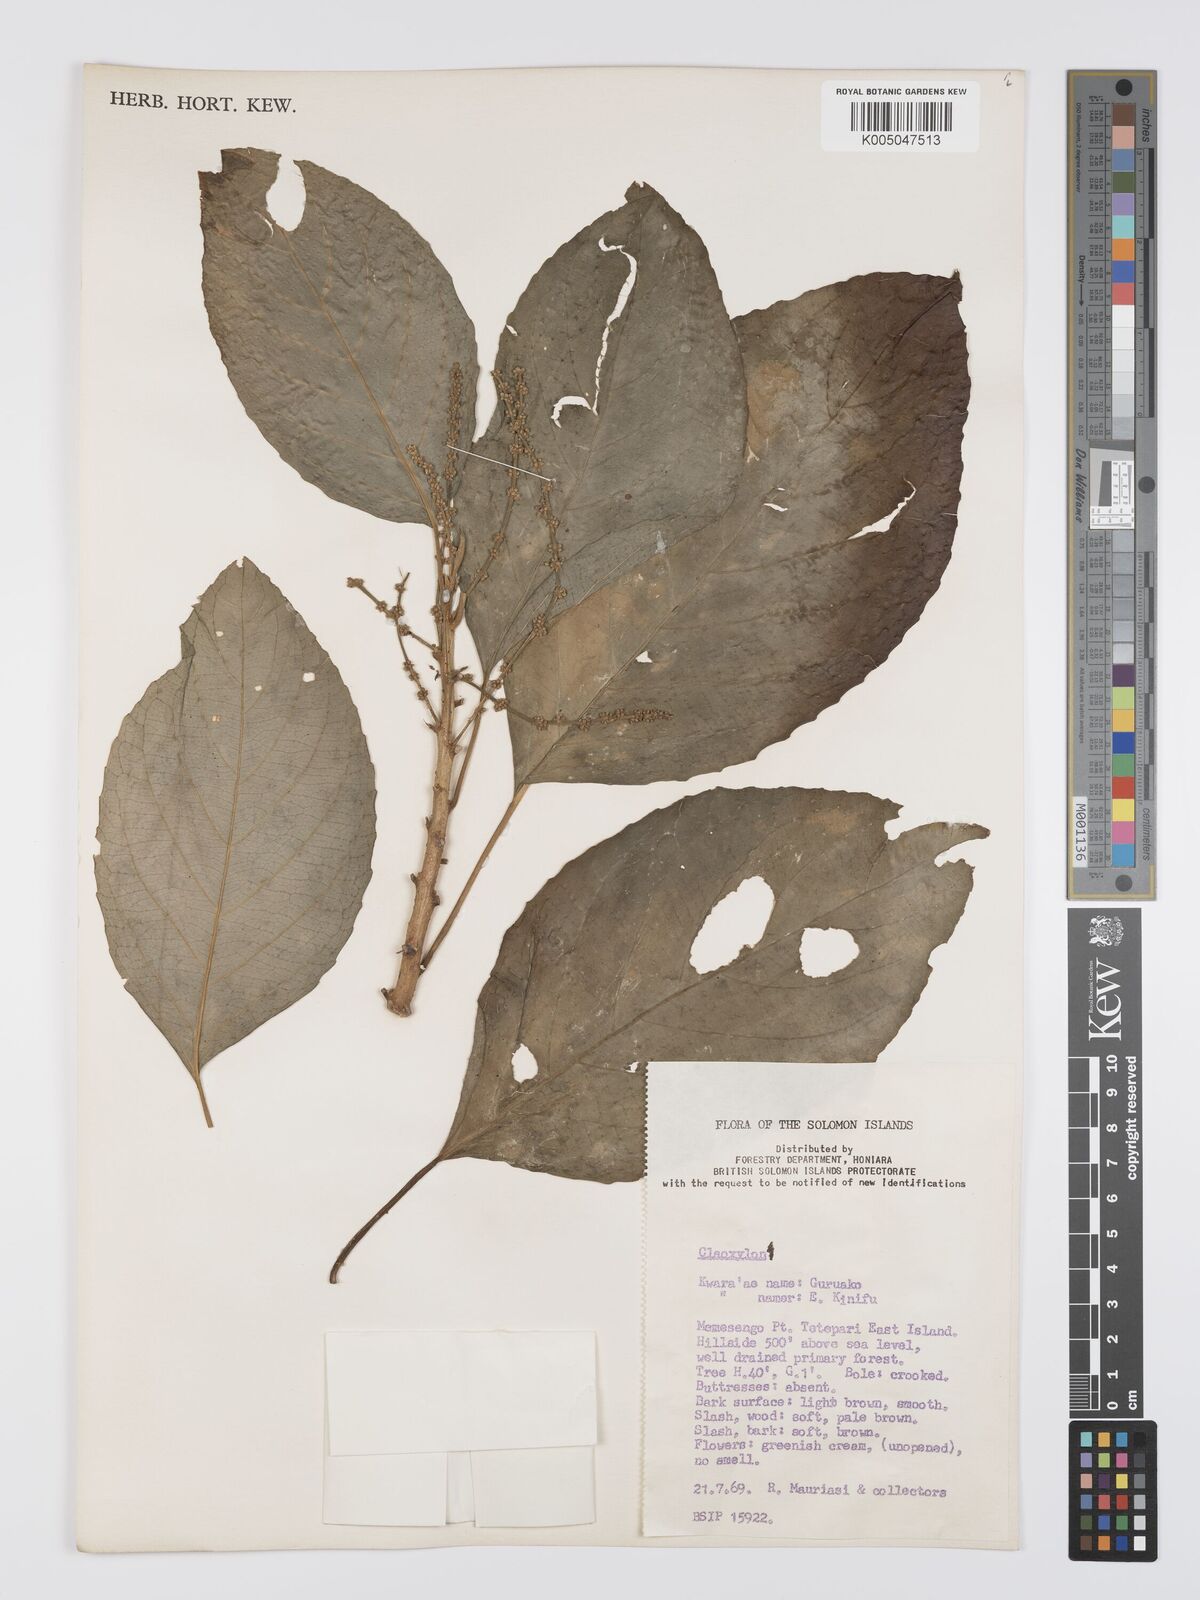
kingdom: Plantae
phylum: Tracheophyta
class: Magnoliopsida
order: Malpighiales
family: Euphorbiaceae
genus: Claoxylon
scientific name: Claoxylon carolinianum
